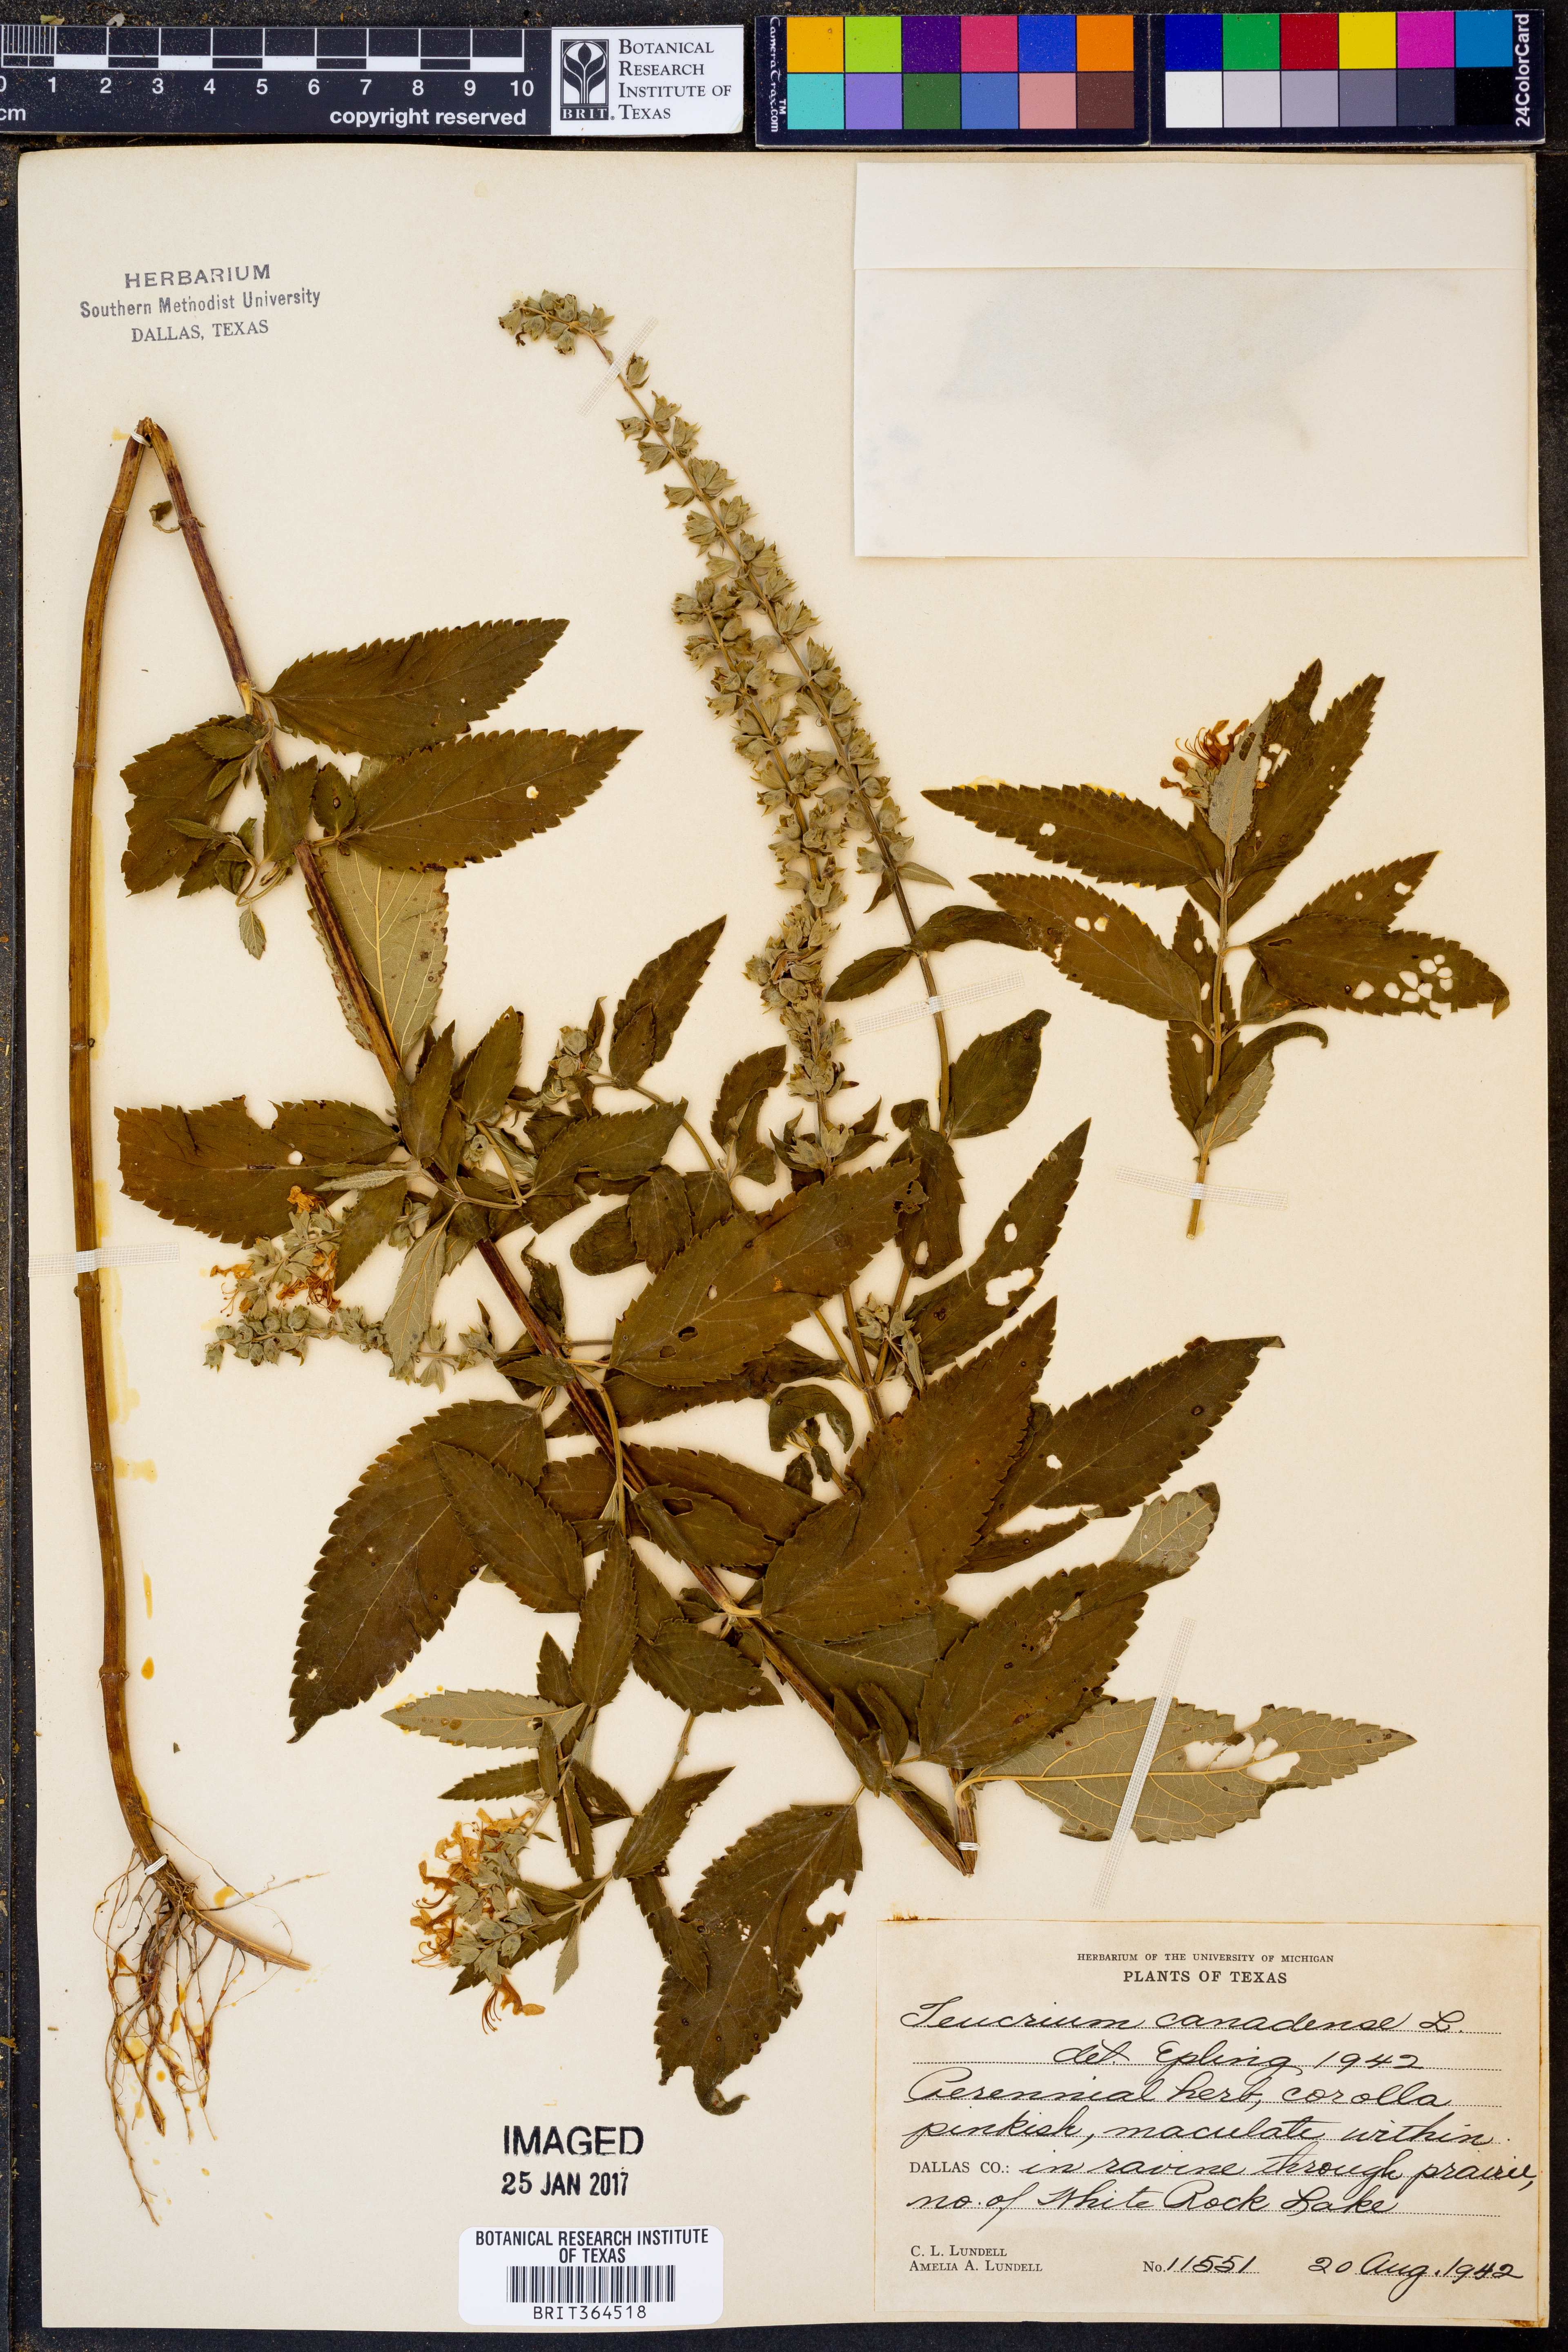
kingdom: Plantae
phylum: Tracheophyta
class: Magnoliopsida
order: Lamiales
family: Lamiaceae
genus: Teucrium
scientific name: Teucrium canadense
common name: American germander
